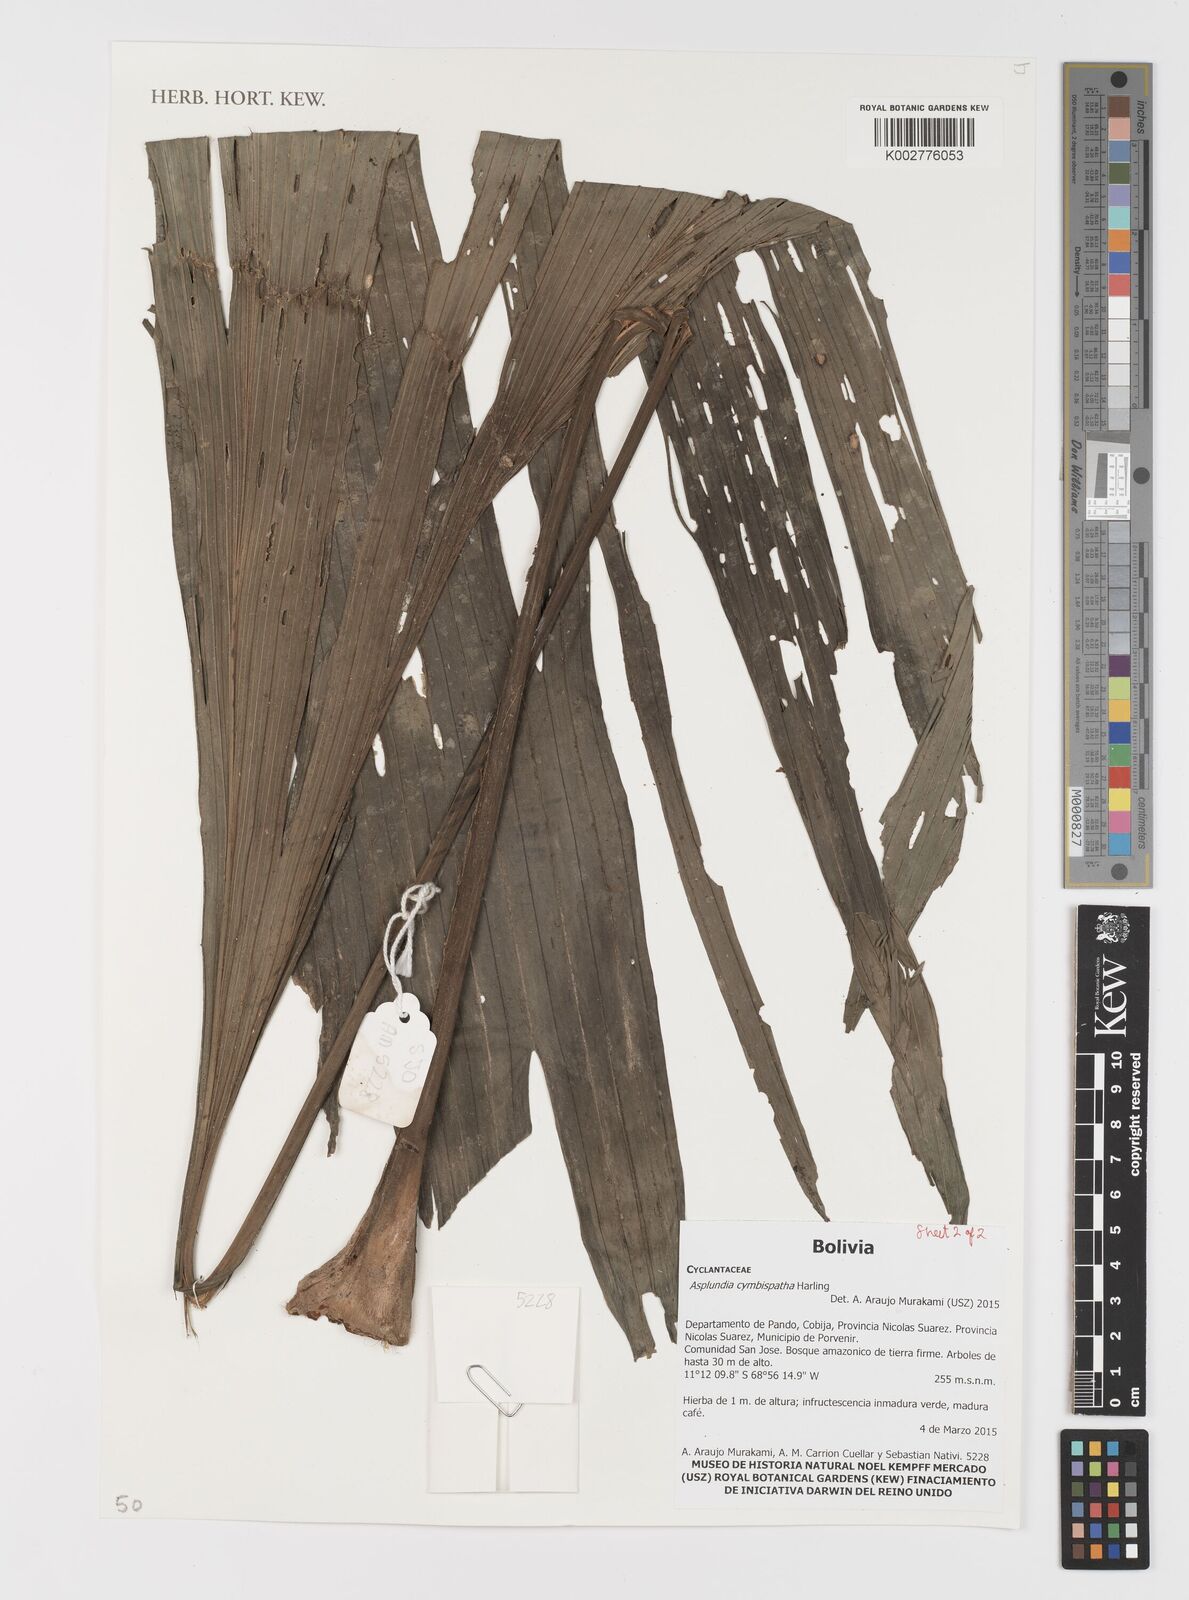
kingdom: Plantae
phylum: Tracheophyta
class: Liliopsida
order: Pandanales
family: Cyclanthaceae
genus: Asplundia
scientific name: Asplundia cymbispatha
